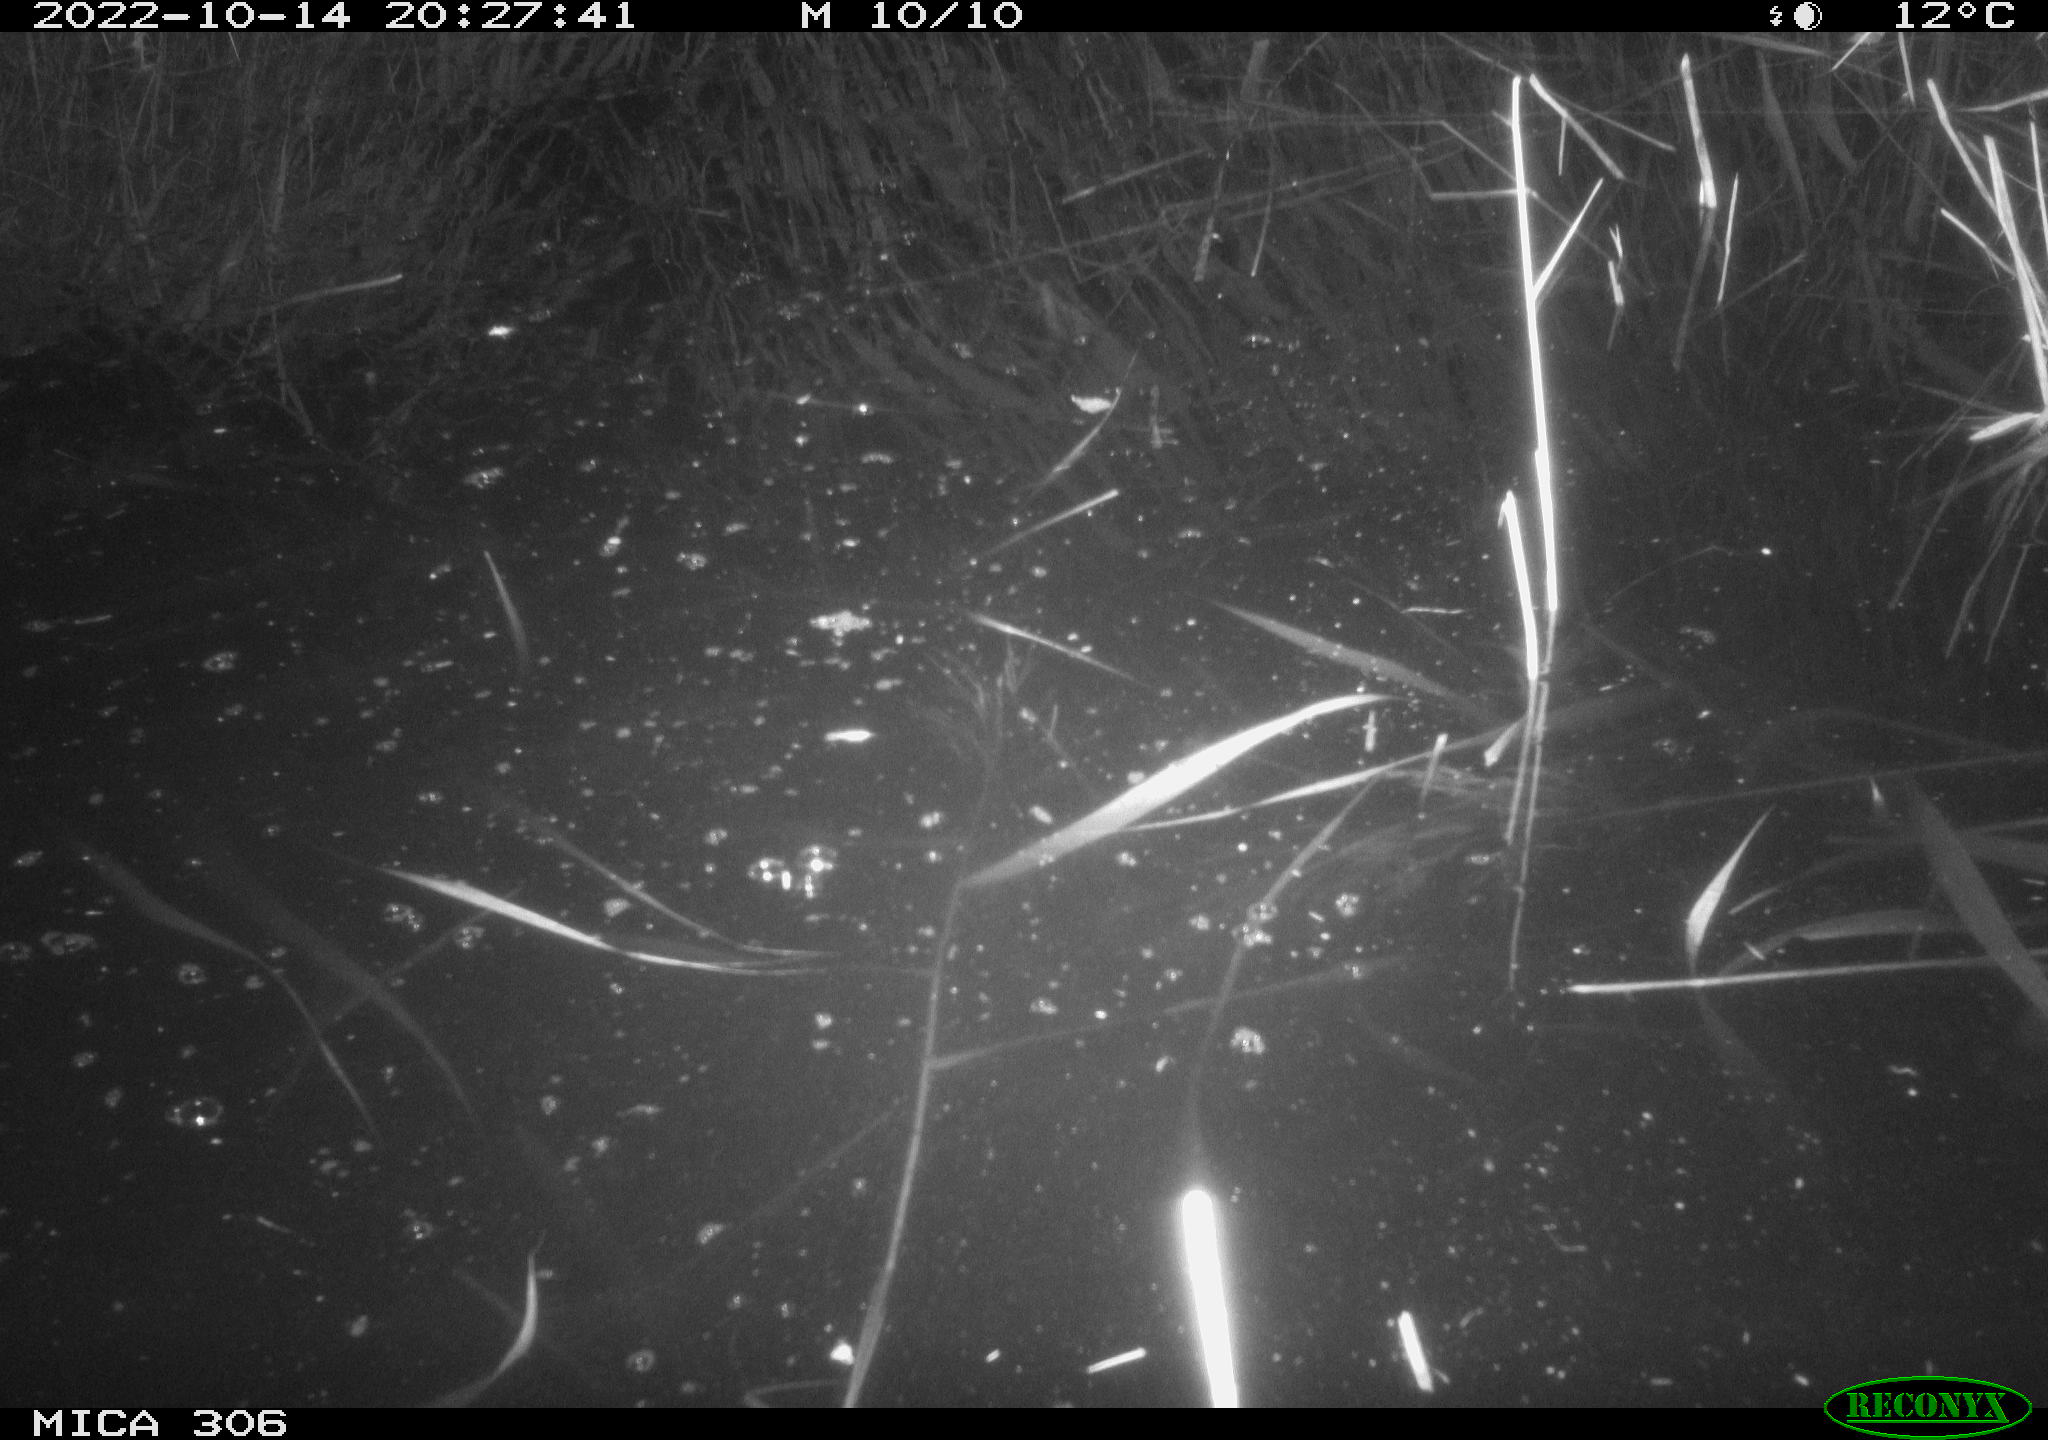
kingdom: Animalia
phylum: Chordata
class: Mammalia
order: Rodentia
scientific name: Rodentia
